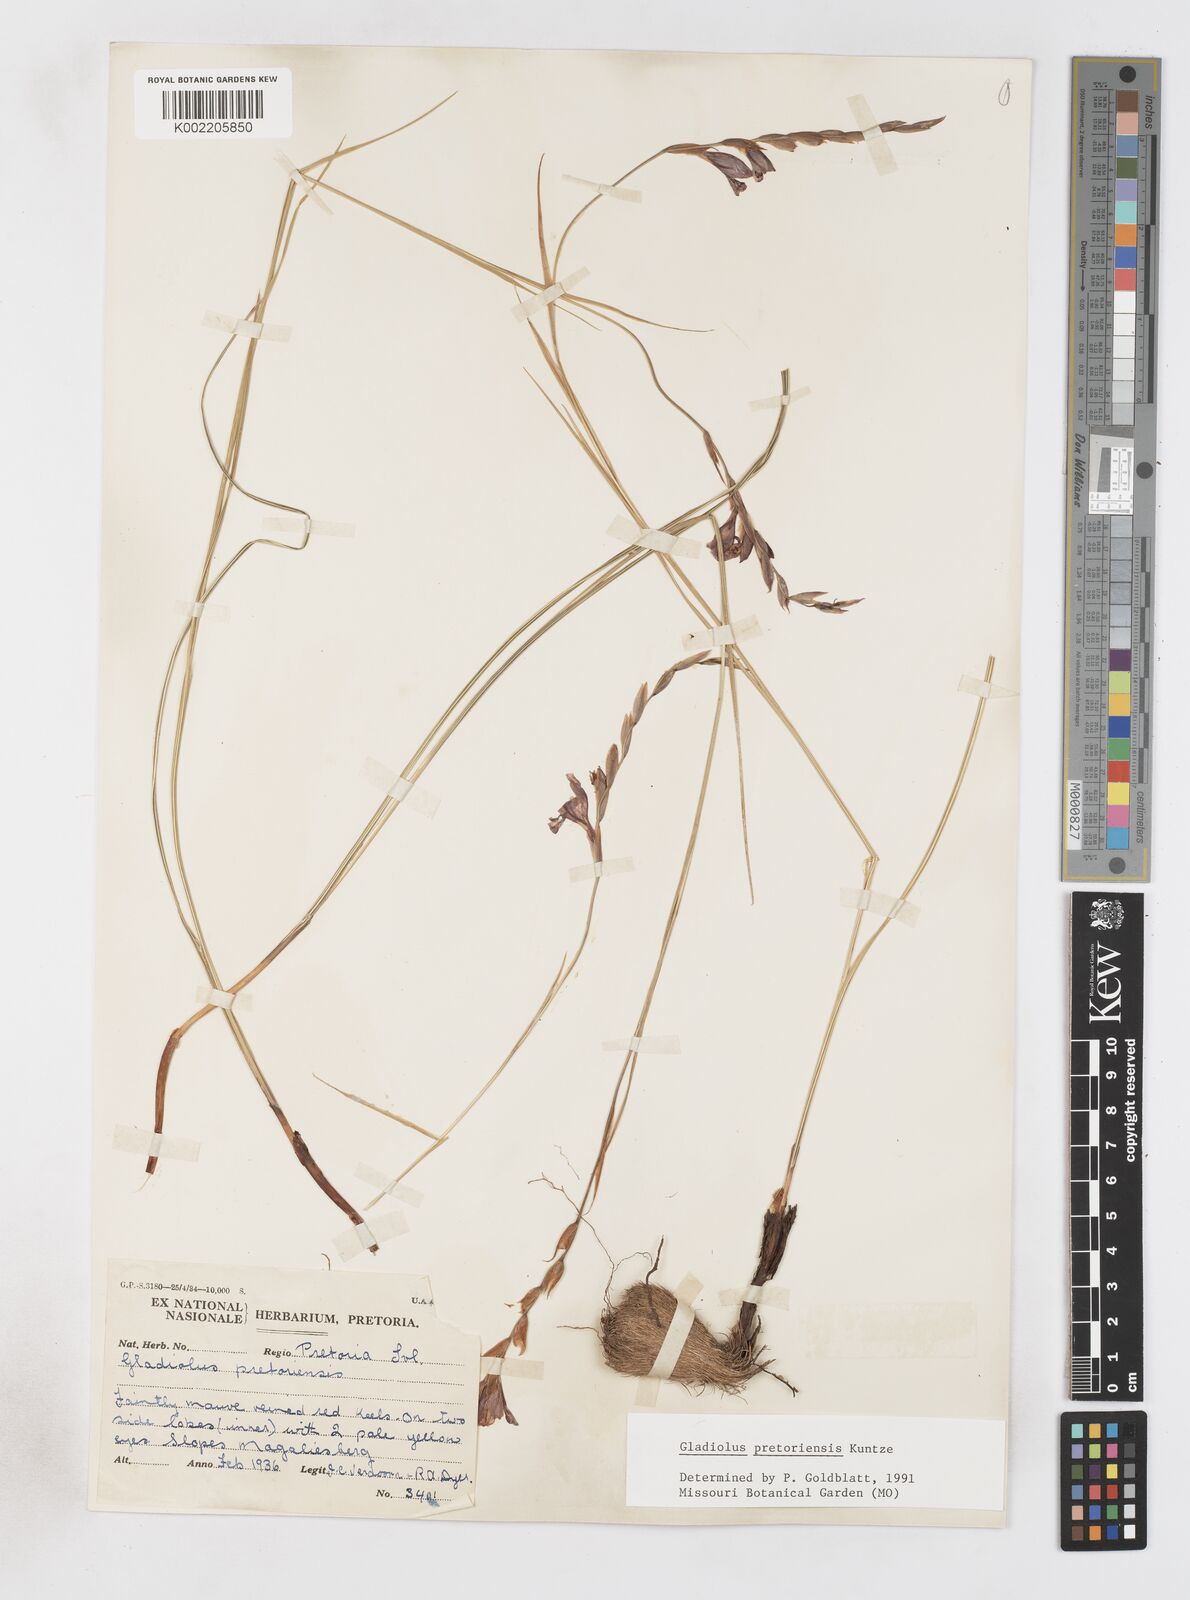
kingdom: Plantae
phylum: Tracheophyta
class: Liliopsida
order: Asparagales
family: Iridaceae
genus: Gladiolus
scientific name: Gladiolus pretoriensis
